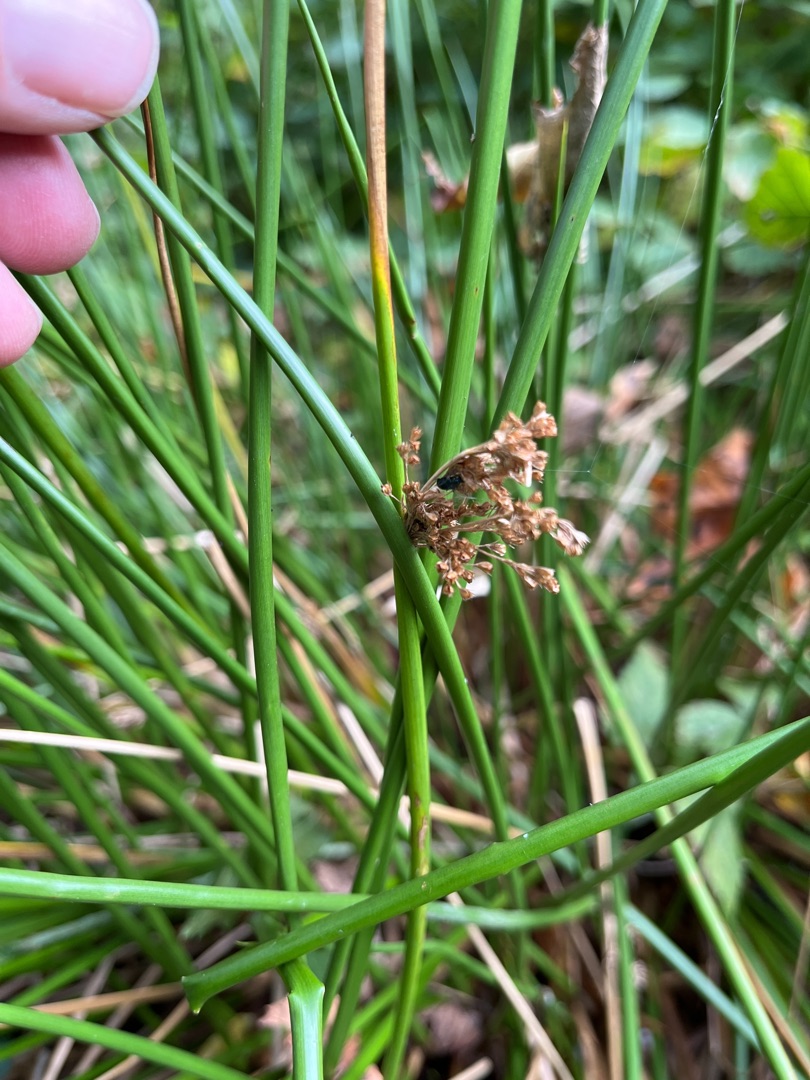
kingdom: Plantae
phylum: Tracheophyta
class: Liliopsida
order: Poales
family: Juncaceae
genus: Juncus
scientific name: Juncus effusus
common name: Lyse-siv
